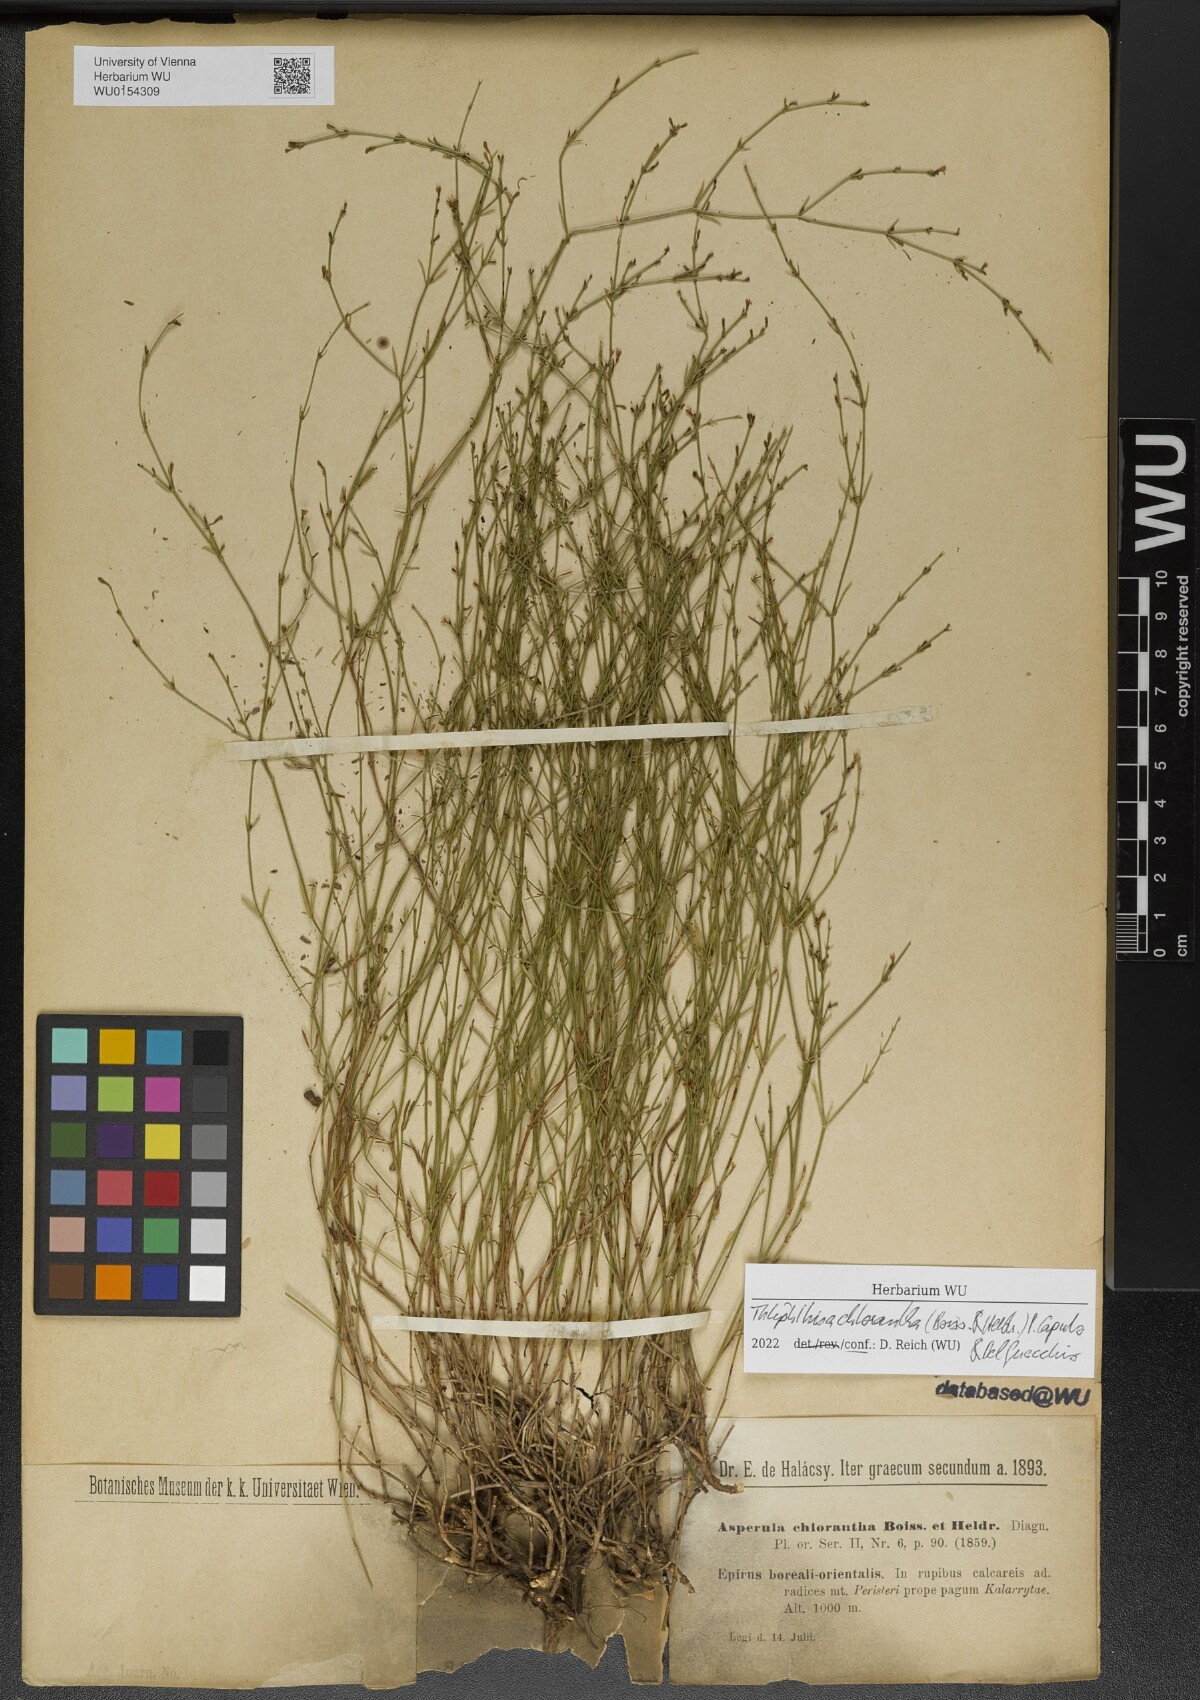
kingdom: Plantae
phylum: Tracheophyta
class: Magnoliopsida
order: Gentianales
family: Rubiaceae
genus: Thliphthisa
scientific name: Thliphthisa chlorantha
